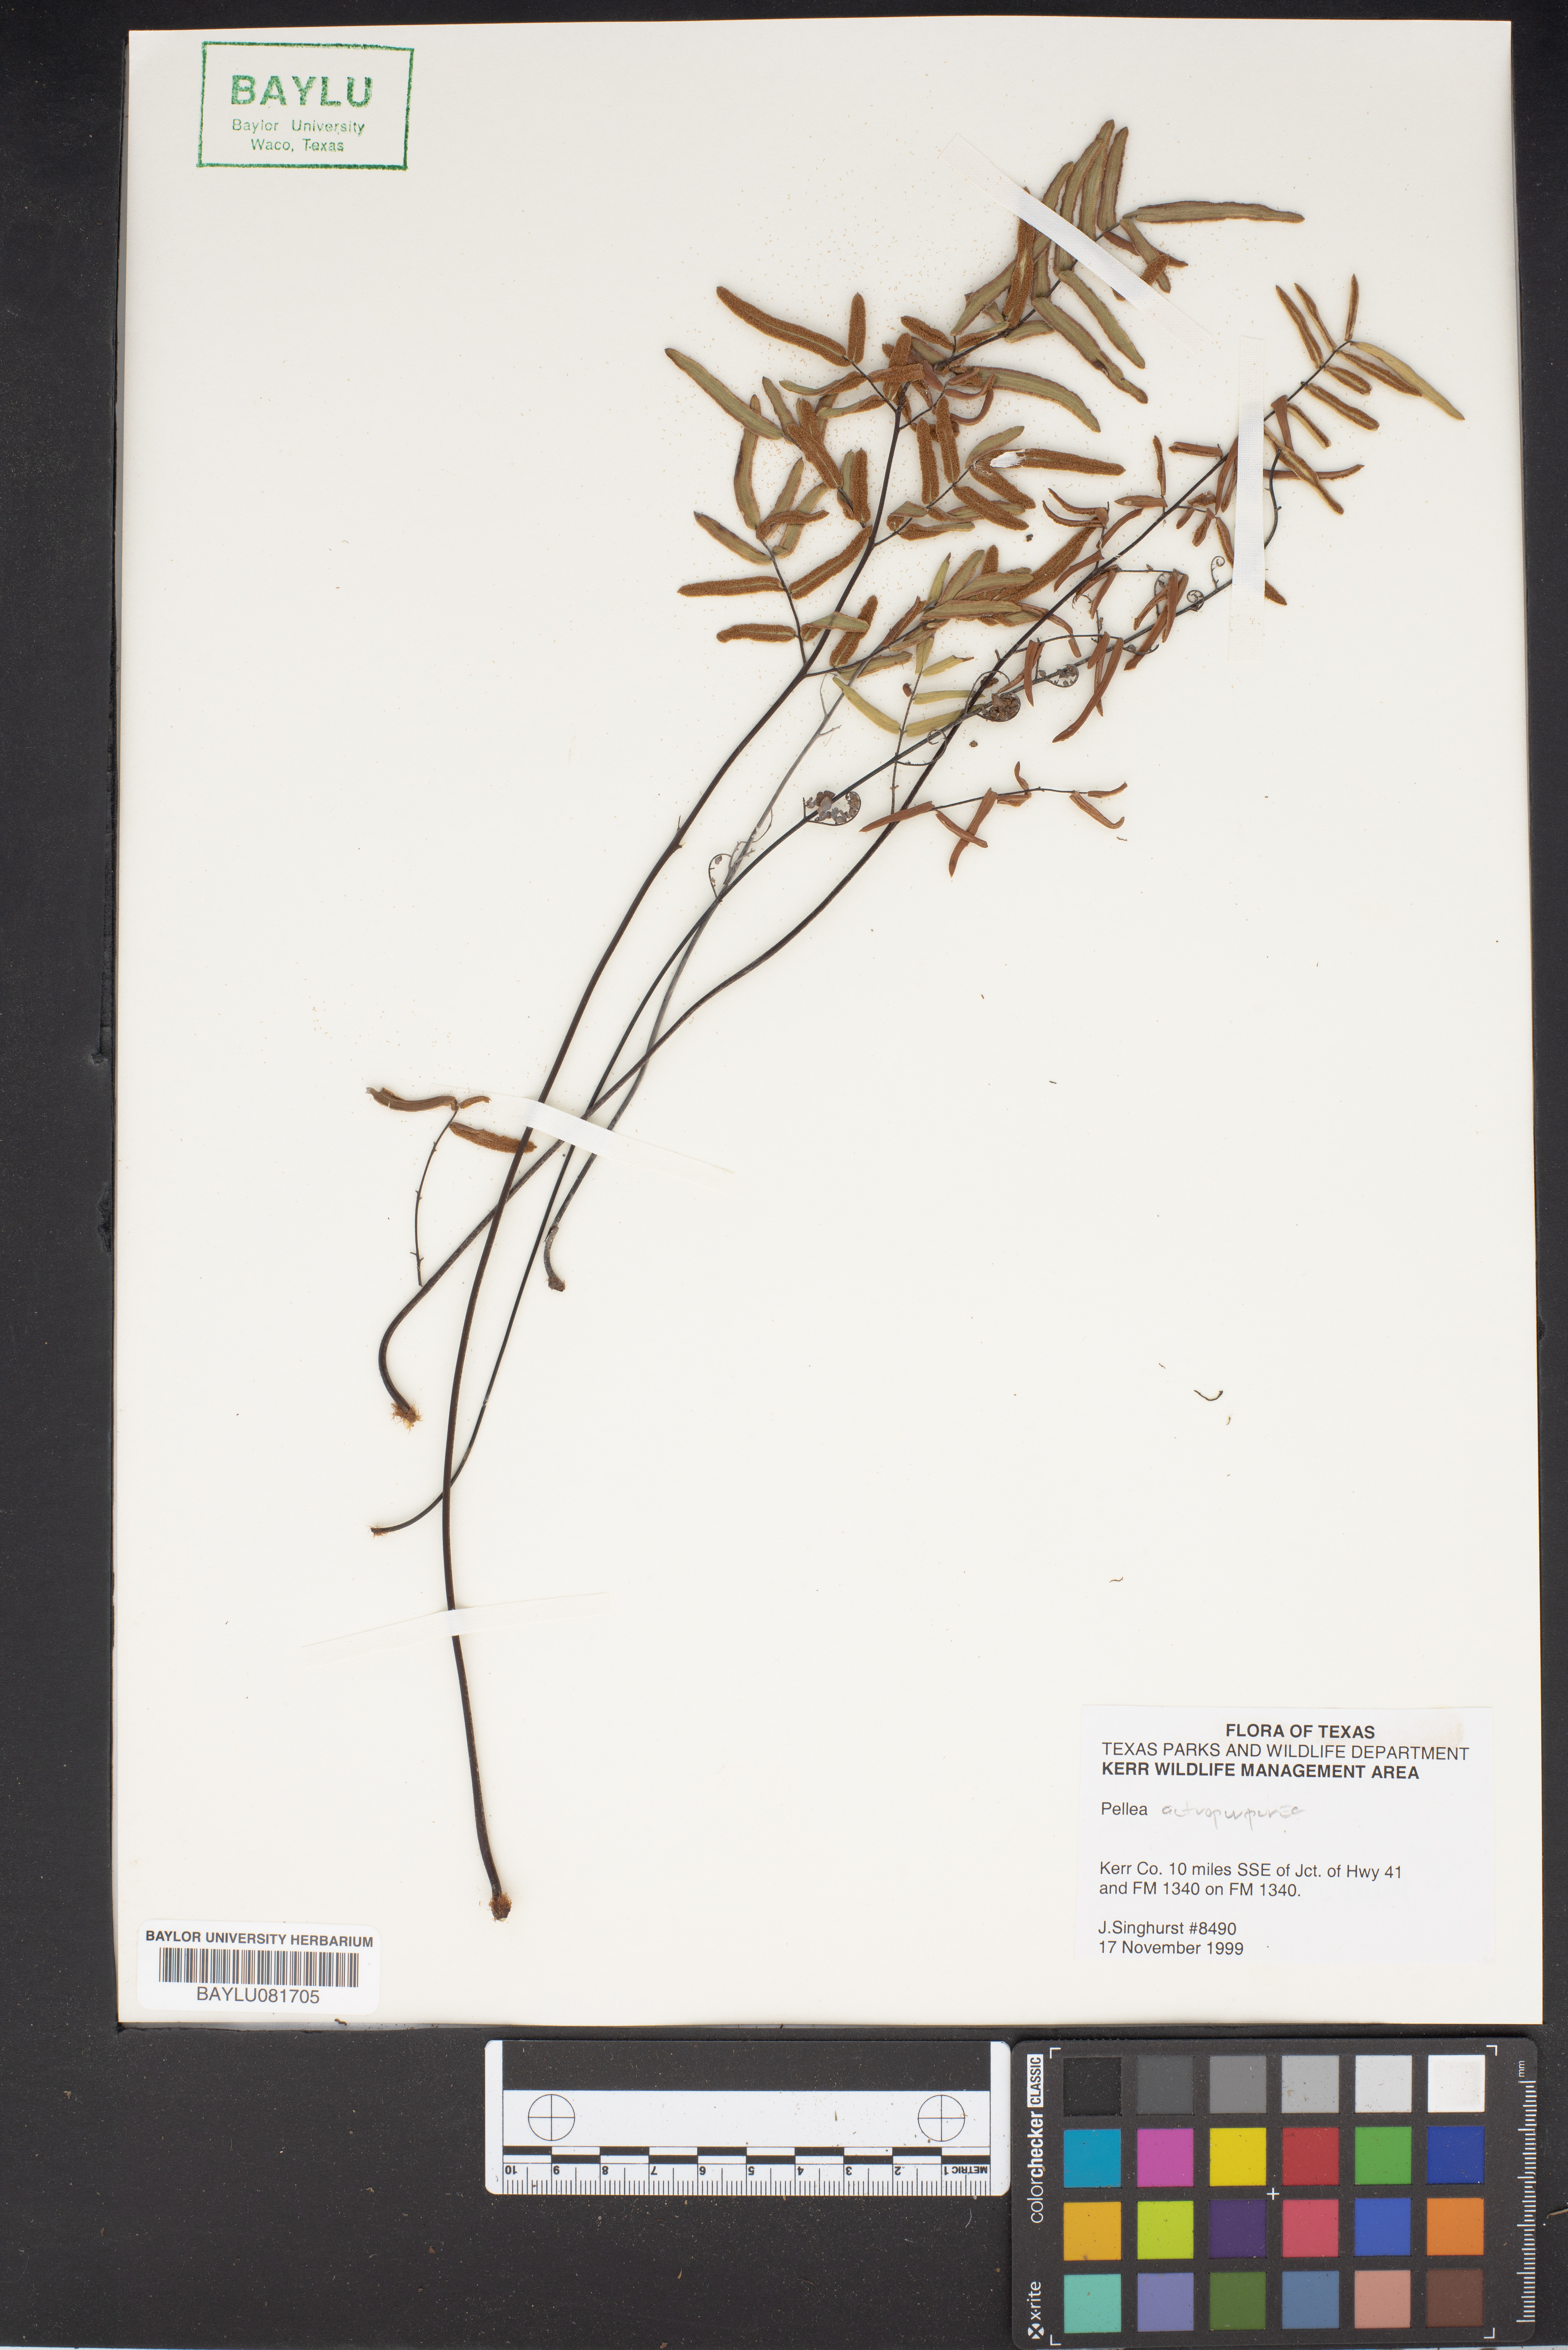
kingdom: Plantae
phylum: Tracheophyta
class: Magnoliopsida
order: Rosales
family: Urticaceae
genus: Pellionia
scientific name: Pellionia
